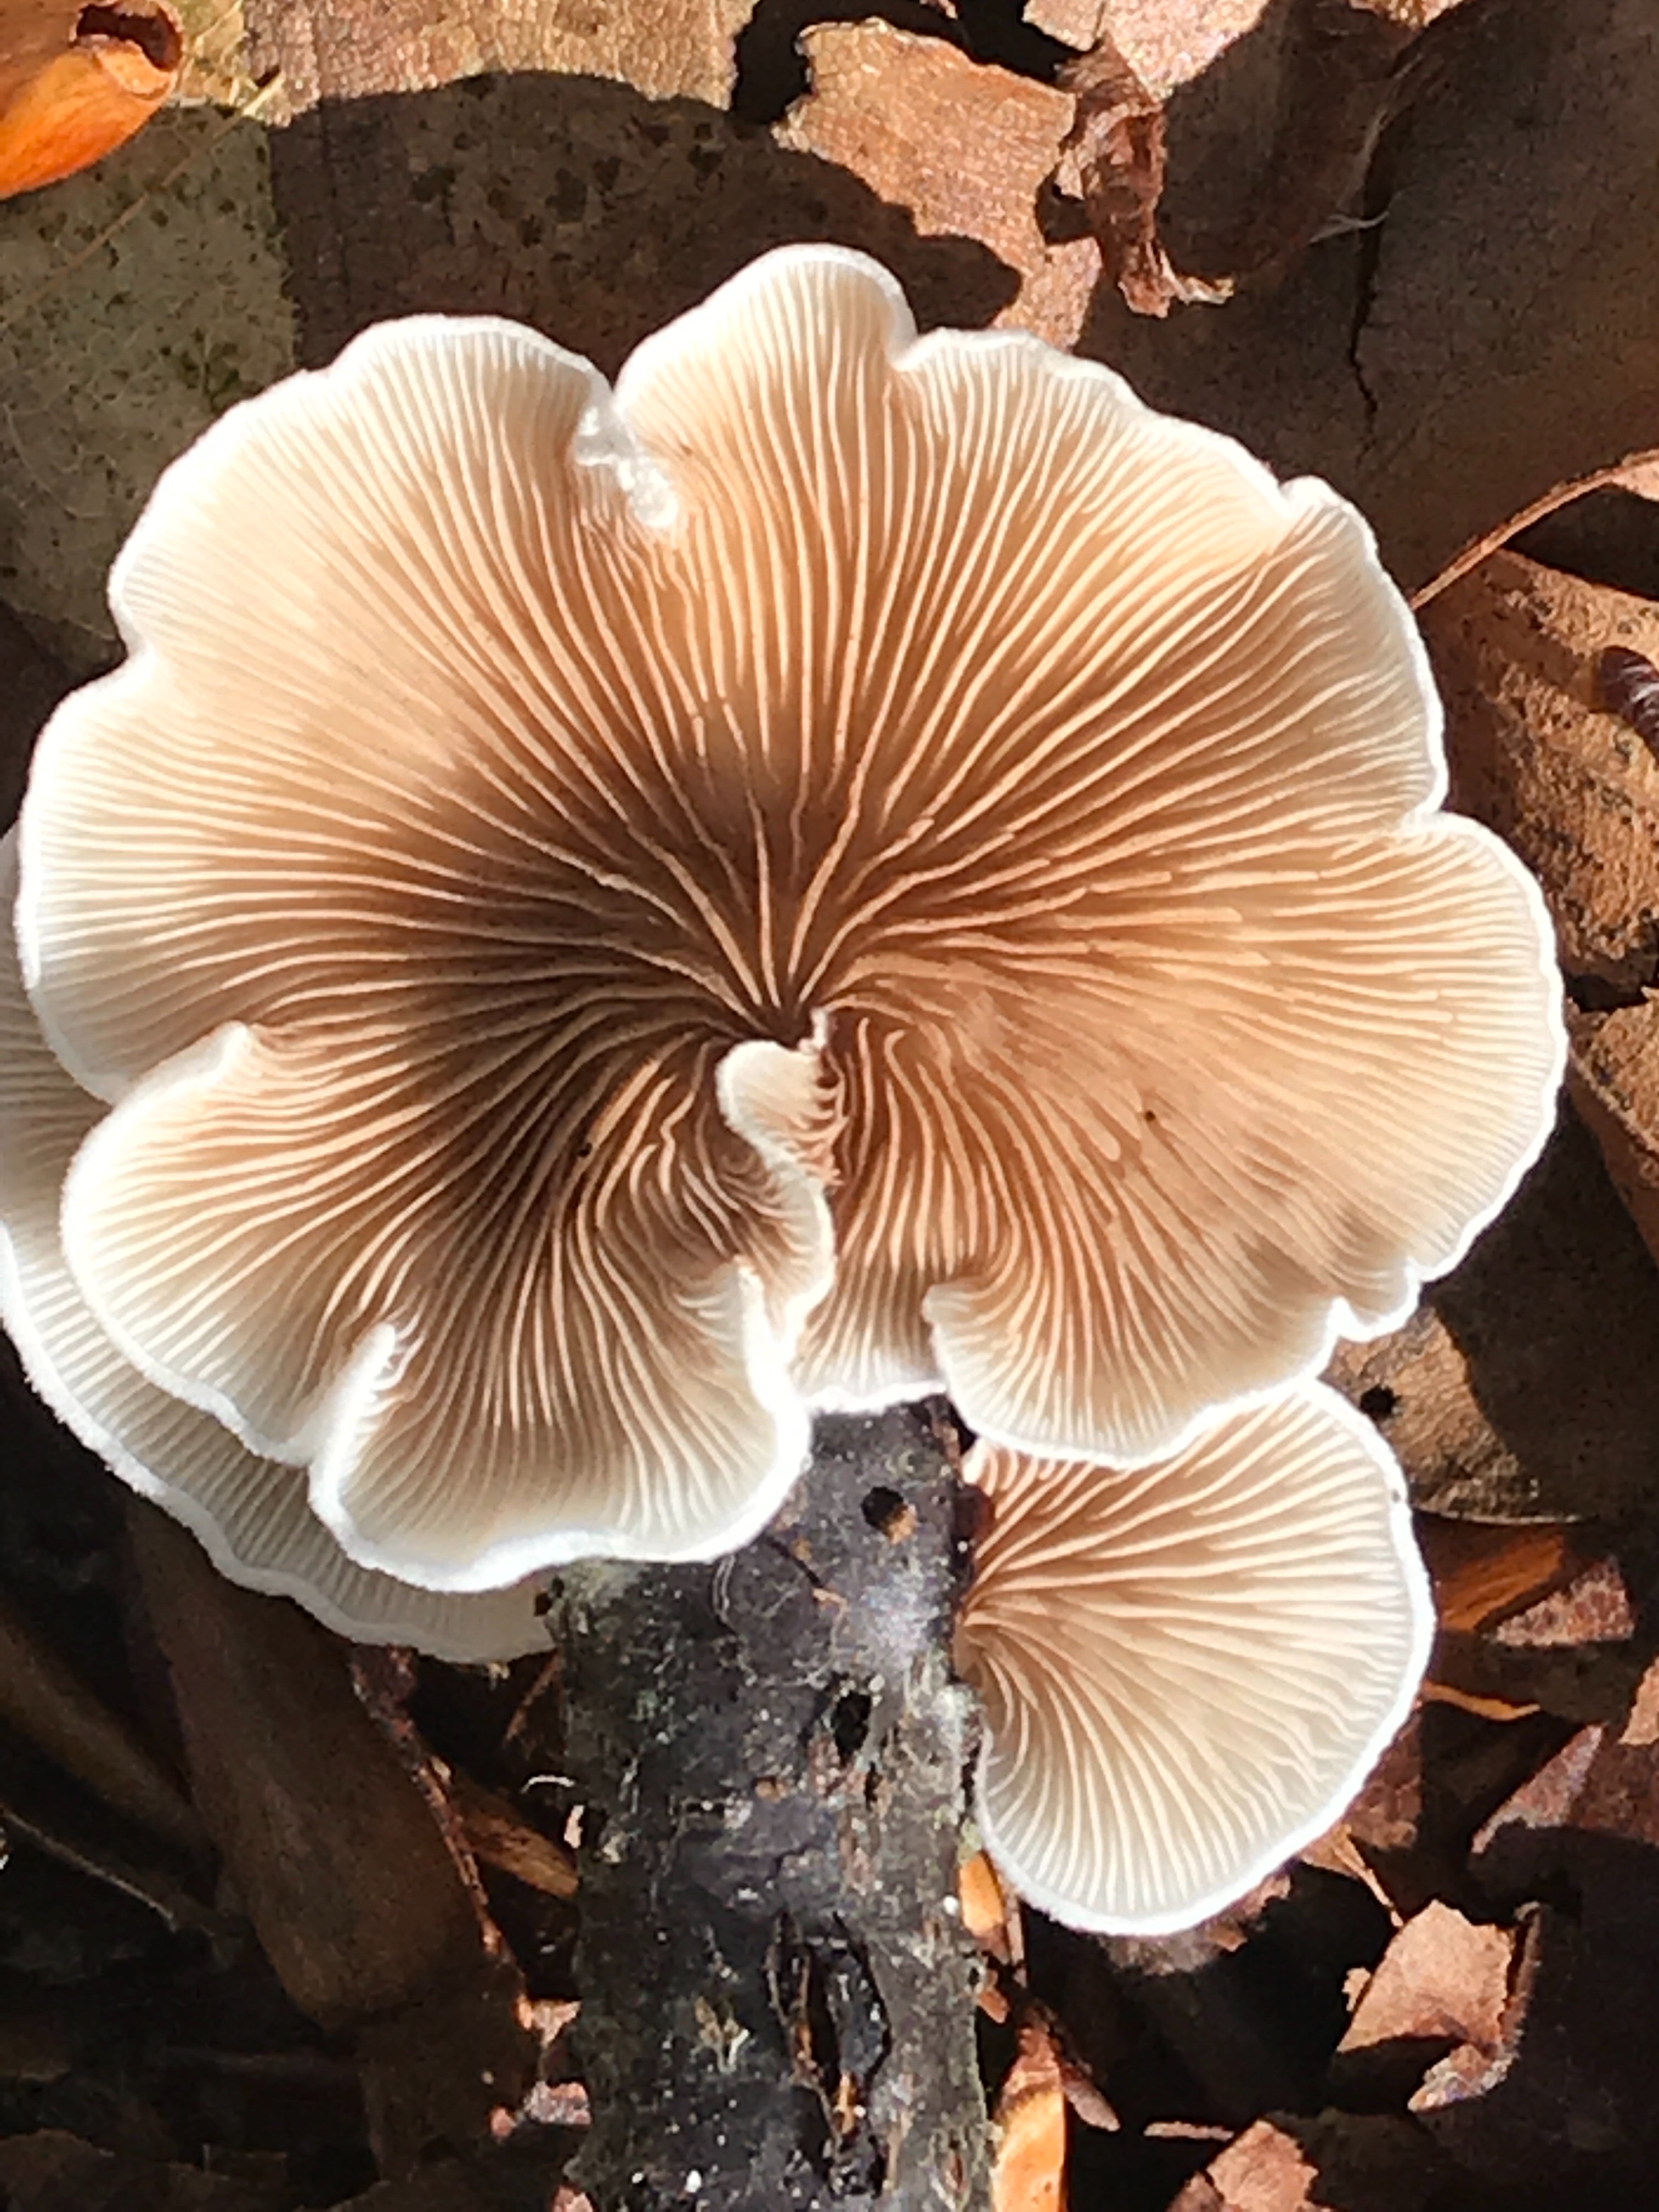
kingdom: Fungi
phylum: Basidiomycota
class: Agaricomycetes
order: Agaricales
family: Crepidotaceae
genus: Crepidotus
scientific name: Crepidotus
